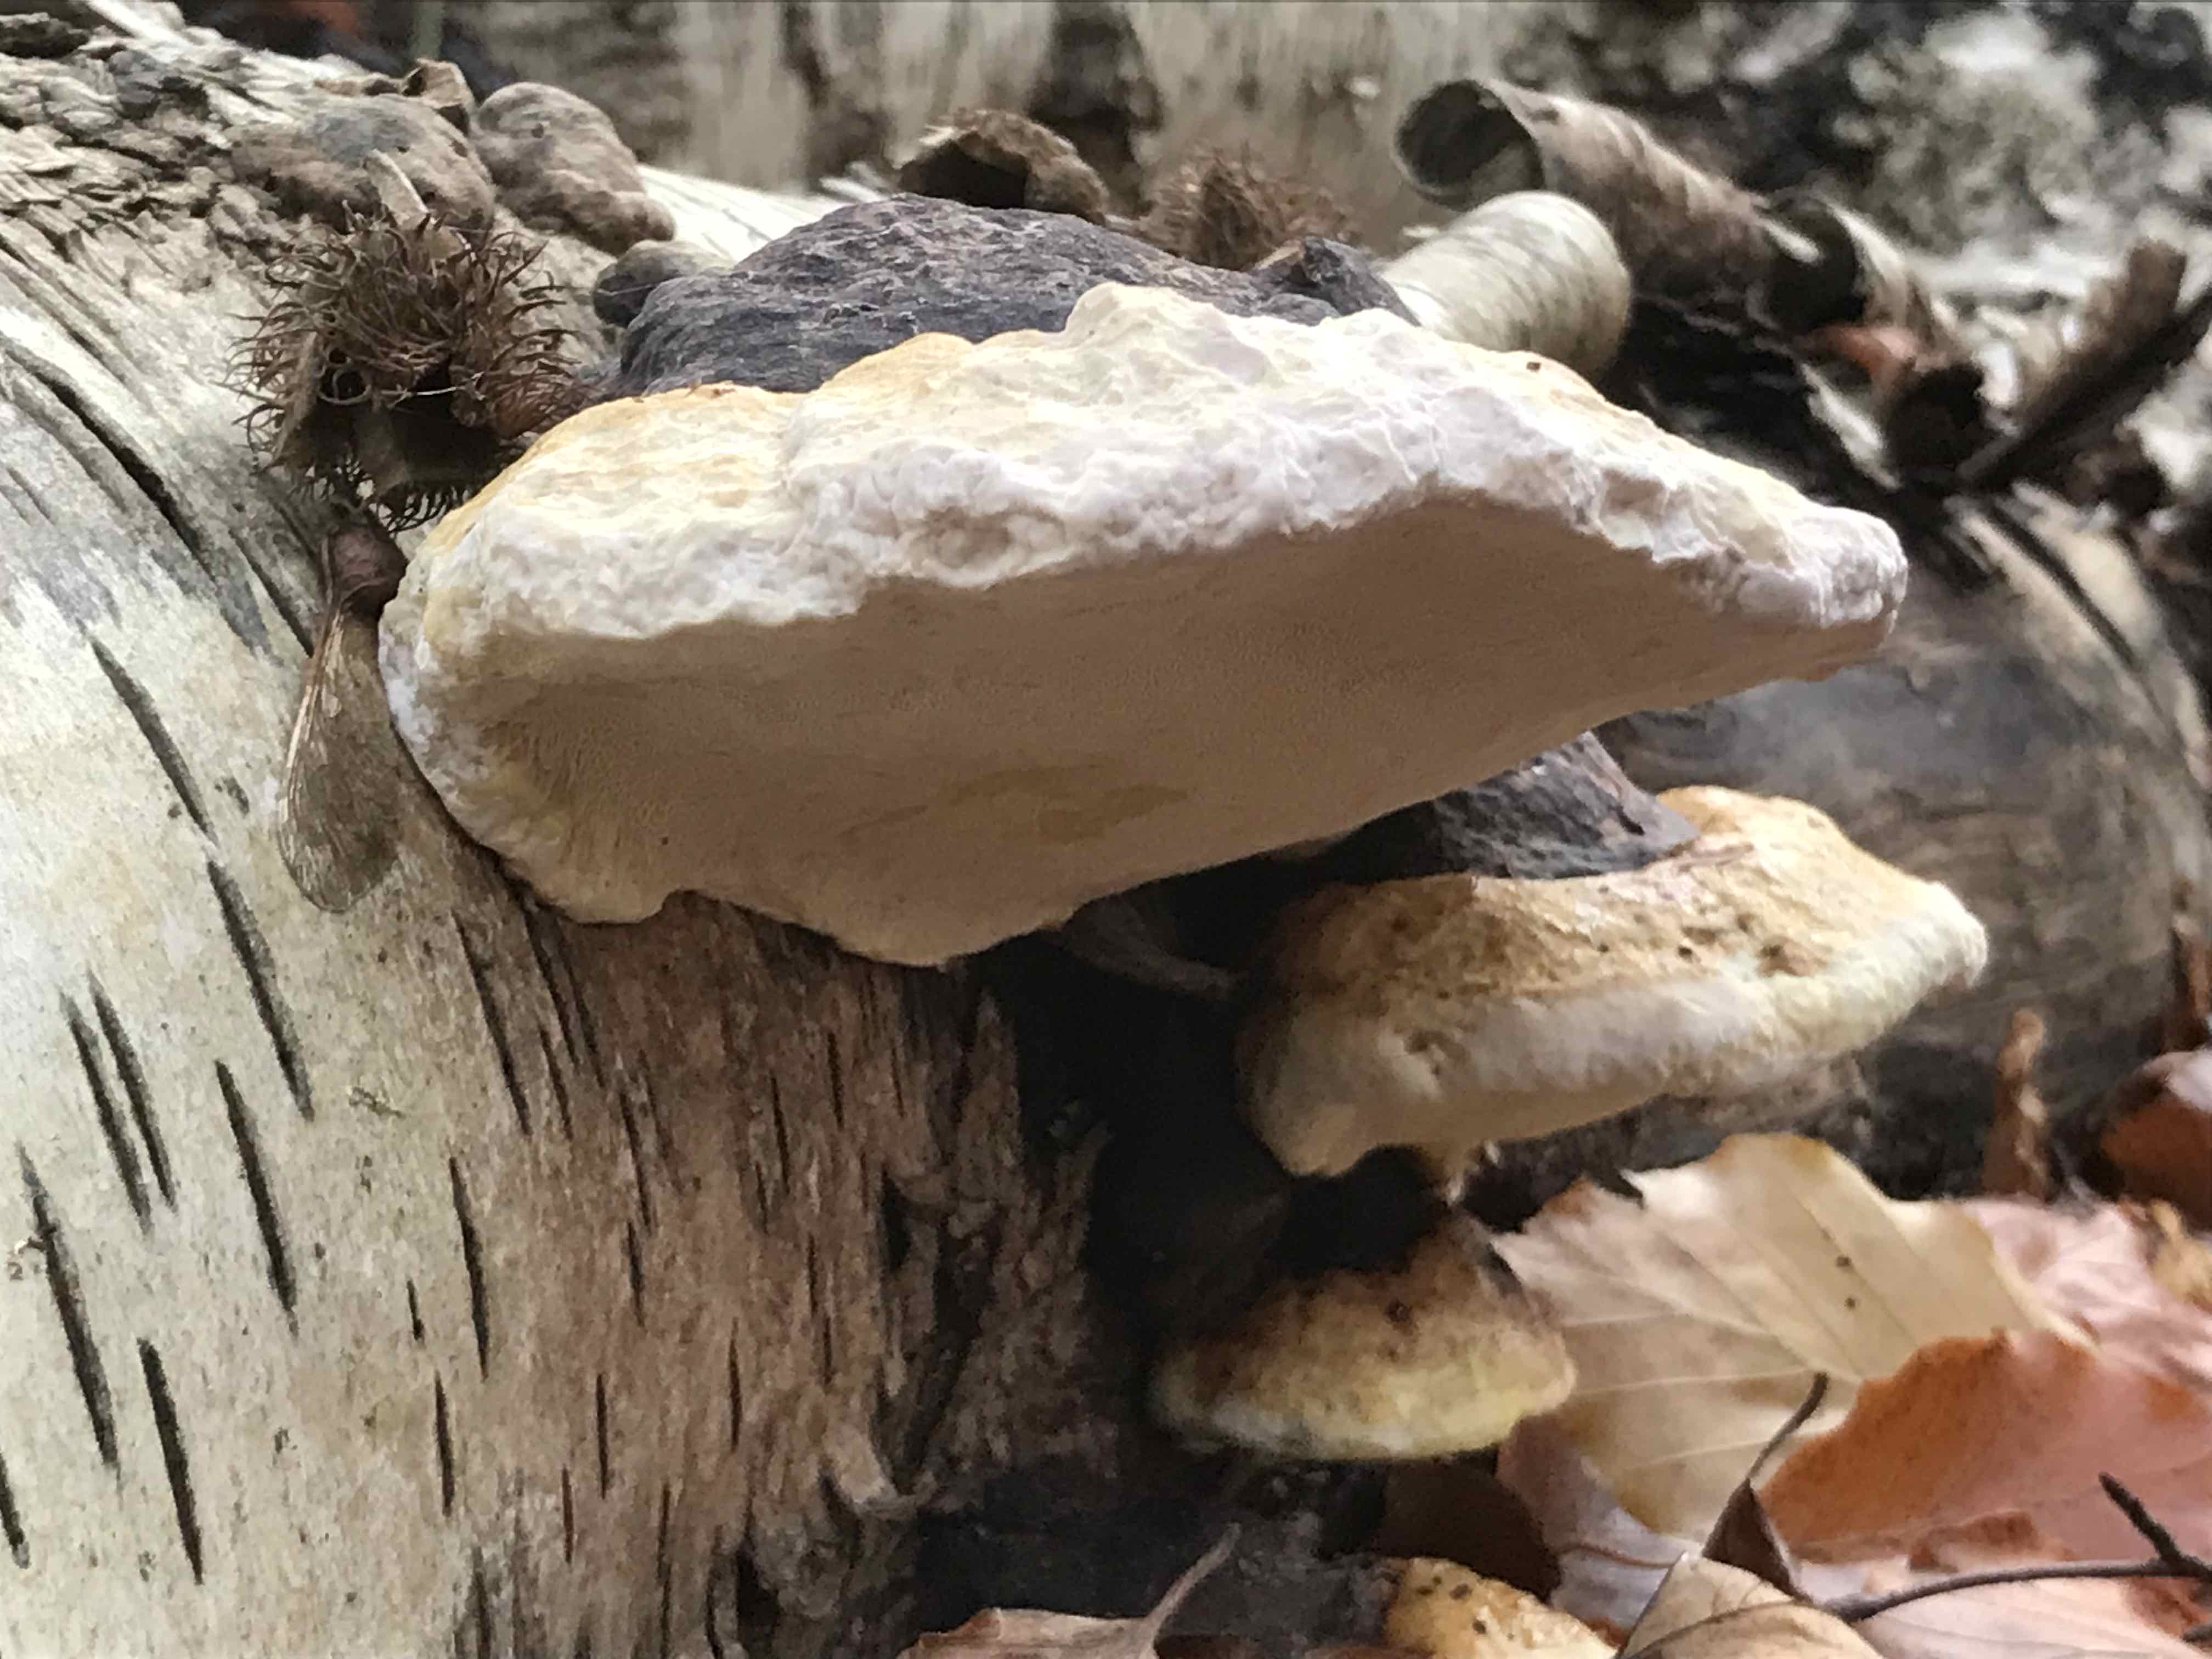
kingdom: Fungi
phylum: Basidiomycota
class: Agaricomycetes
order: Polyporales
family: Fomitopsidaceae
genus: Fomitopsis
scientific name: Fomitopsis pinicola
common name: randbæltet hovporesvamp
